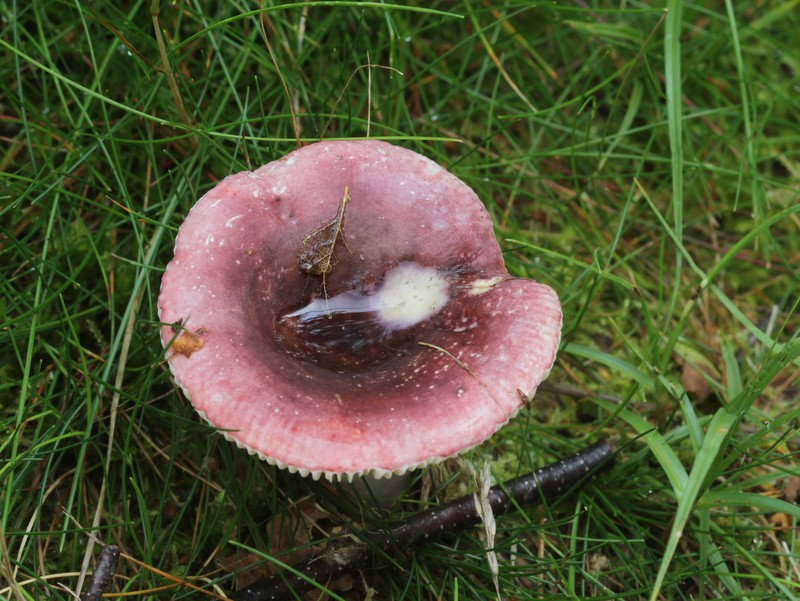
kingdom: Fungi
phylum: Basidiomycota
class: Agaricomycetes
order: Russulales
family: Russulaceae
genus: Russula
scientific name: Russula fragilis
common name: Fragile brittlegill
